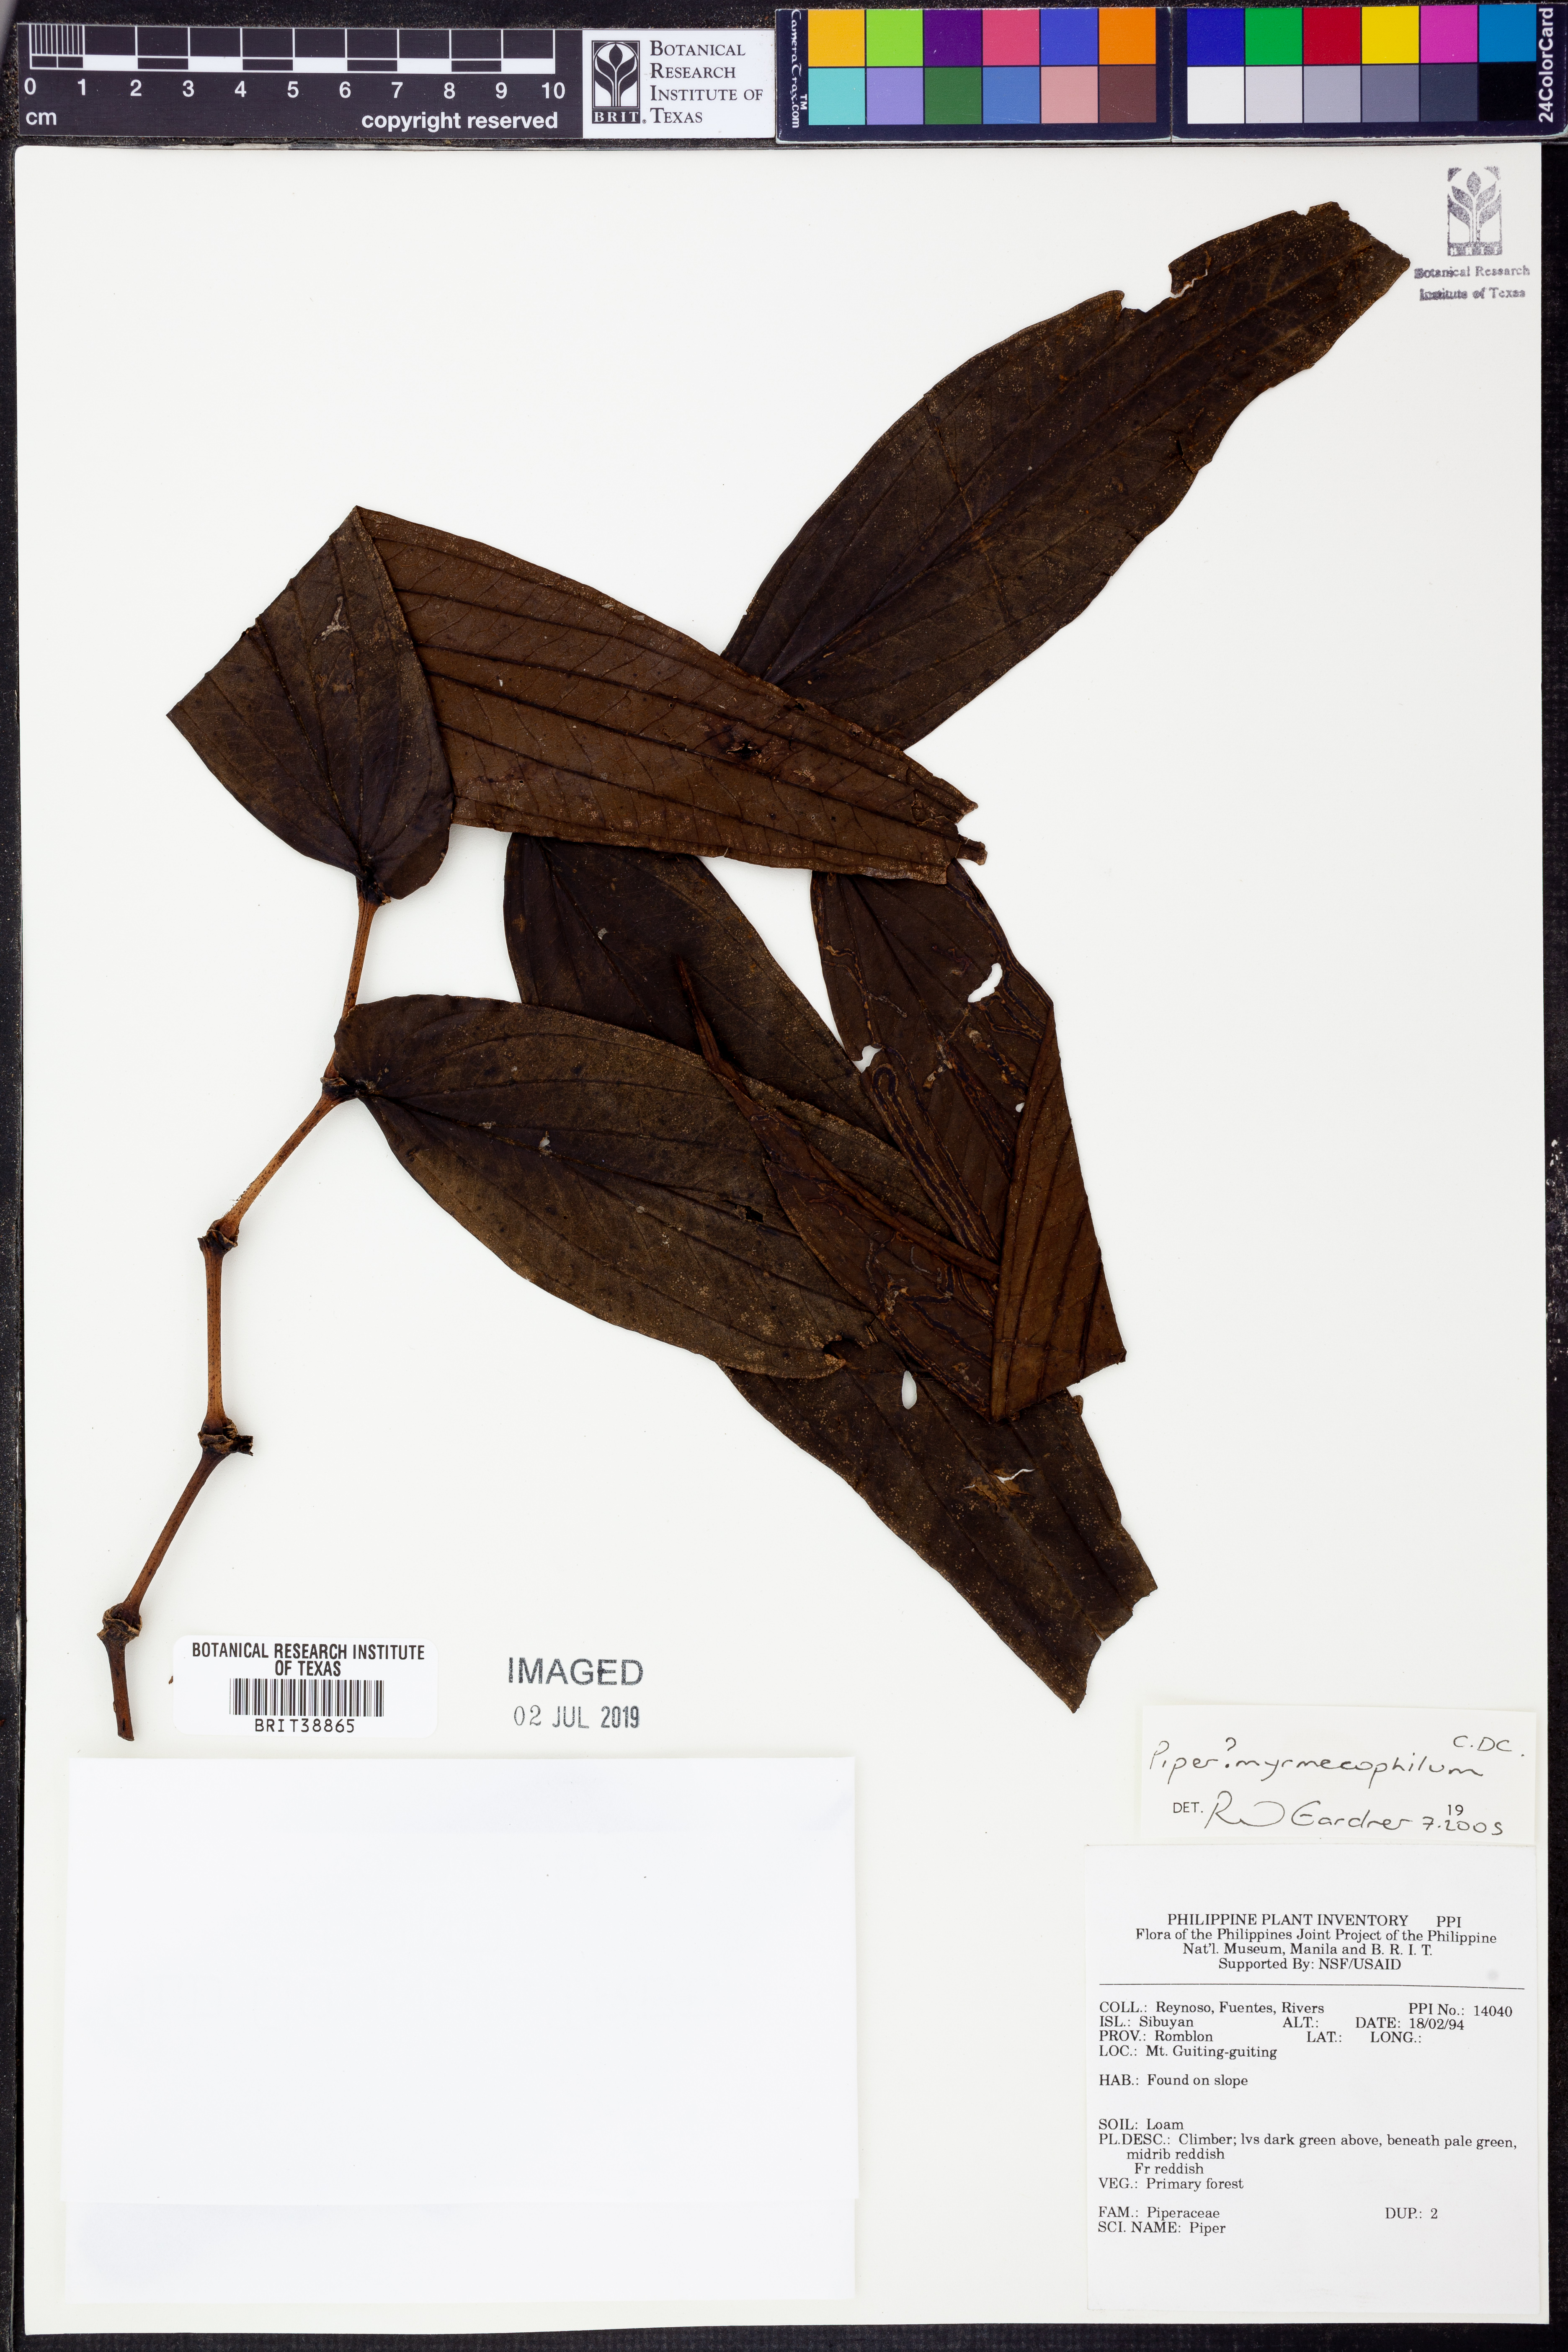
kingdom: Plantae
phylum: Tracheophyta
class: Magnoliopsida
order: Piperales
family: Piperaceae
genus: Piper
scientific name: Piper myrmecophilum
